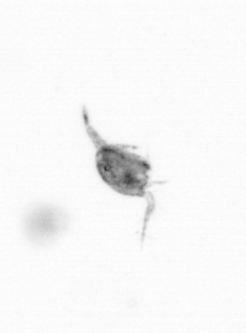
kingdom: Animalia
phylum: Arthropoda
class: Copepoda
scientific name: Copepoda
